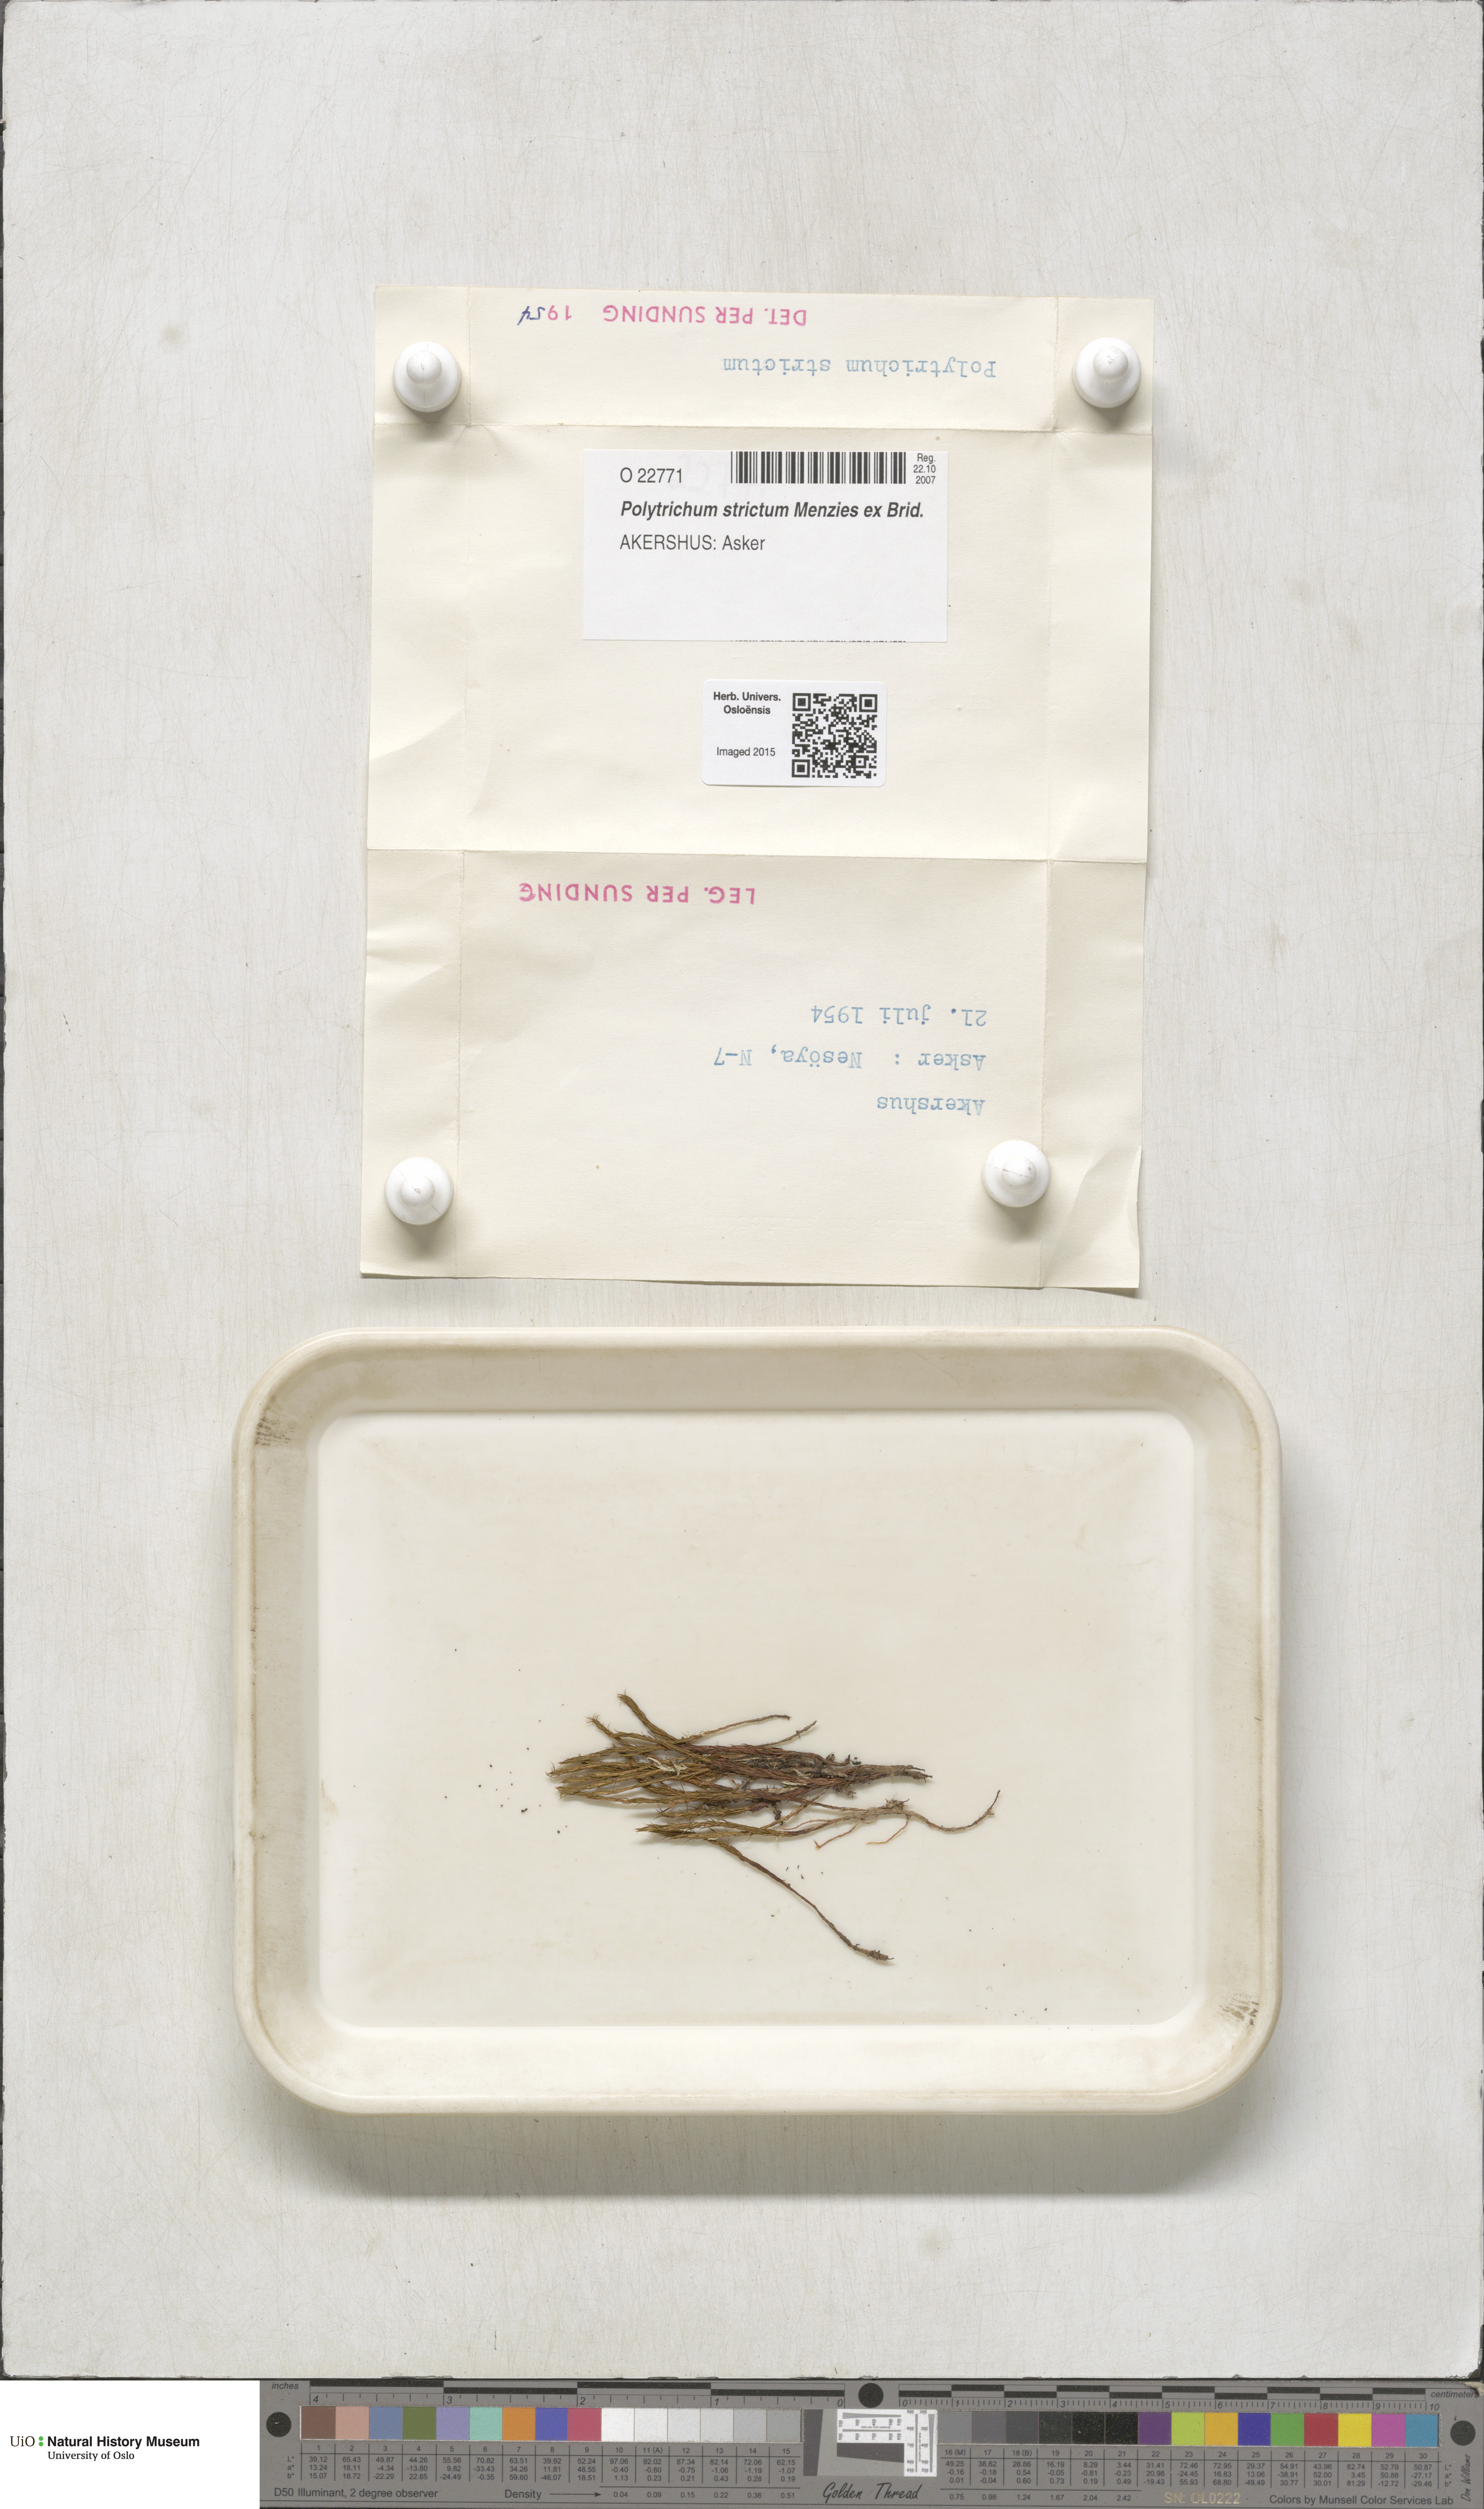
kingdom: Plantae
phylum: Bryophyta
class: Polytrichopsida
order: Polytrichales
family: Polytrichaceae
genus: Polytrichum
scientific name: Polytrichum strictum
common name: Bog haircap moss
